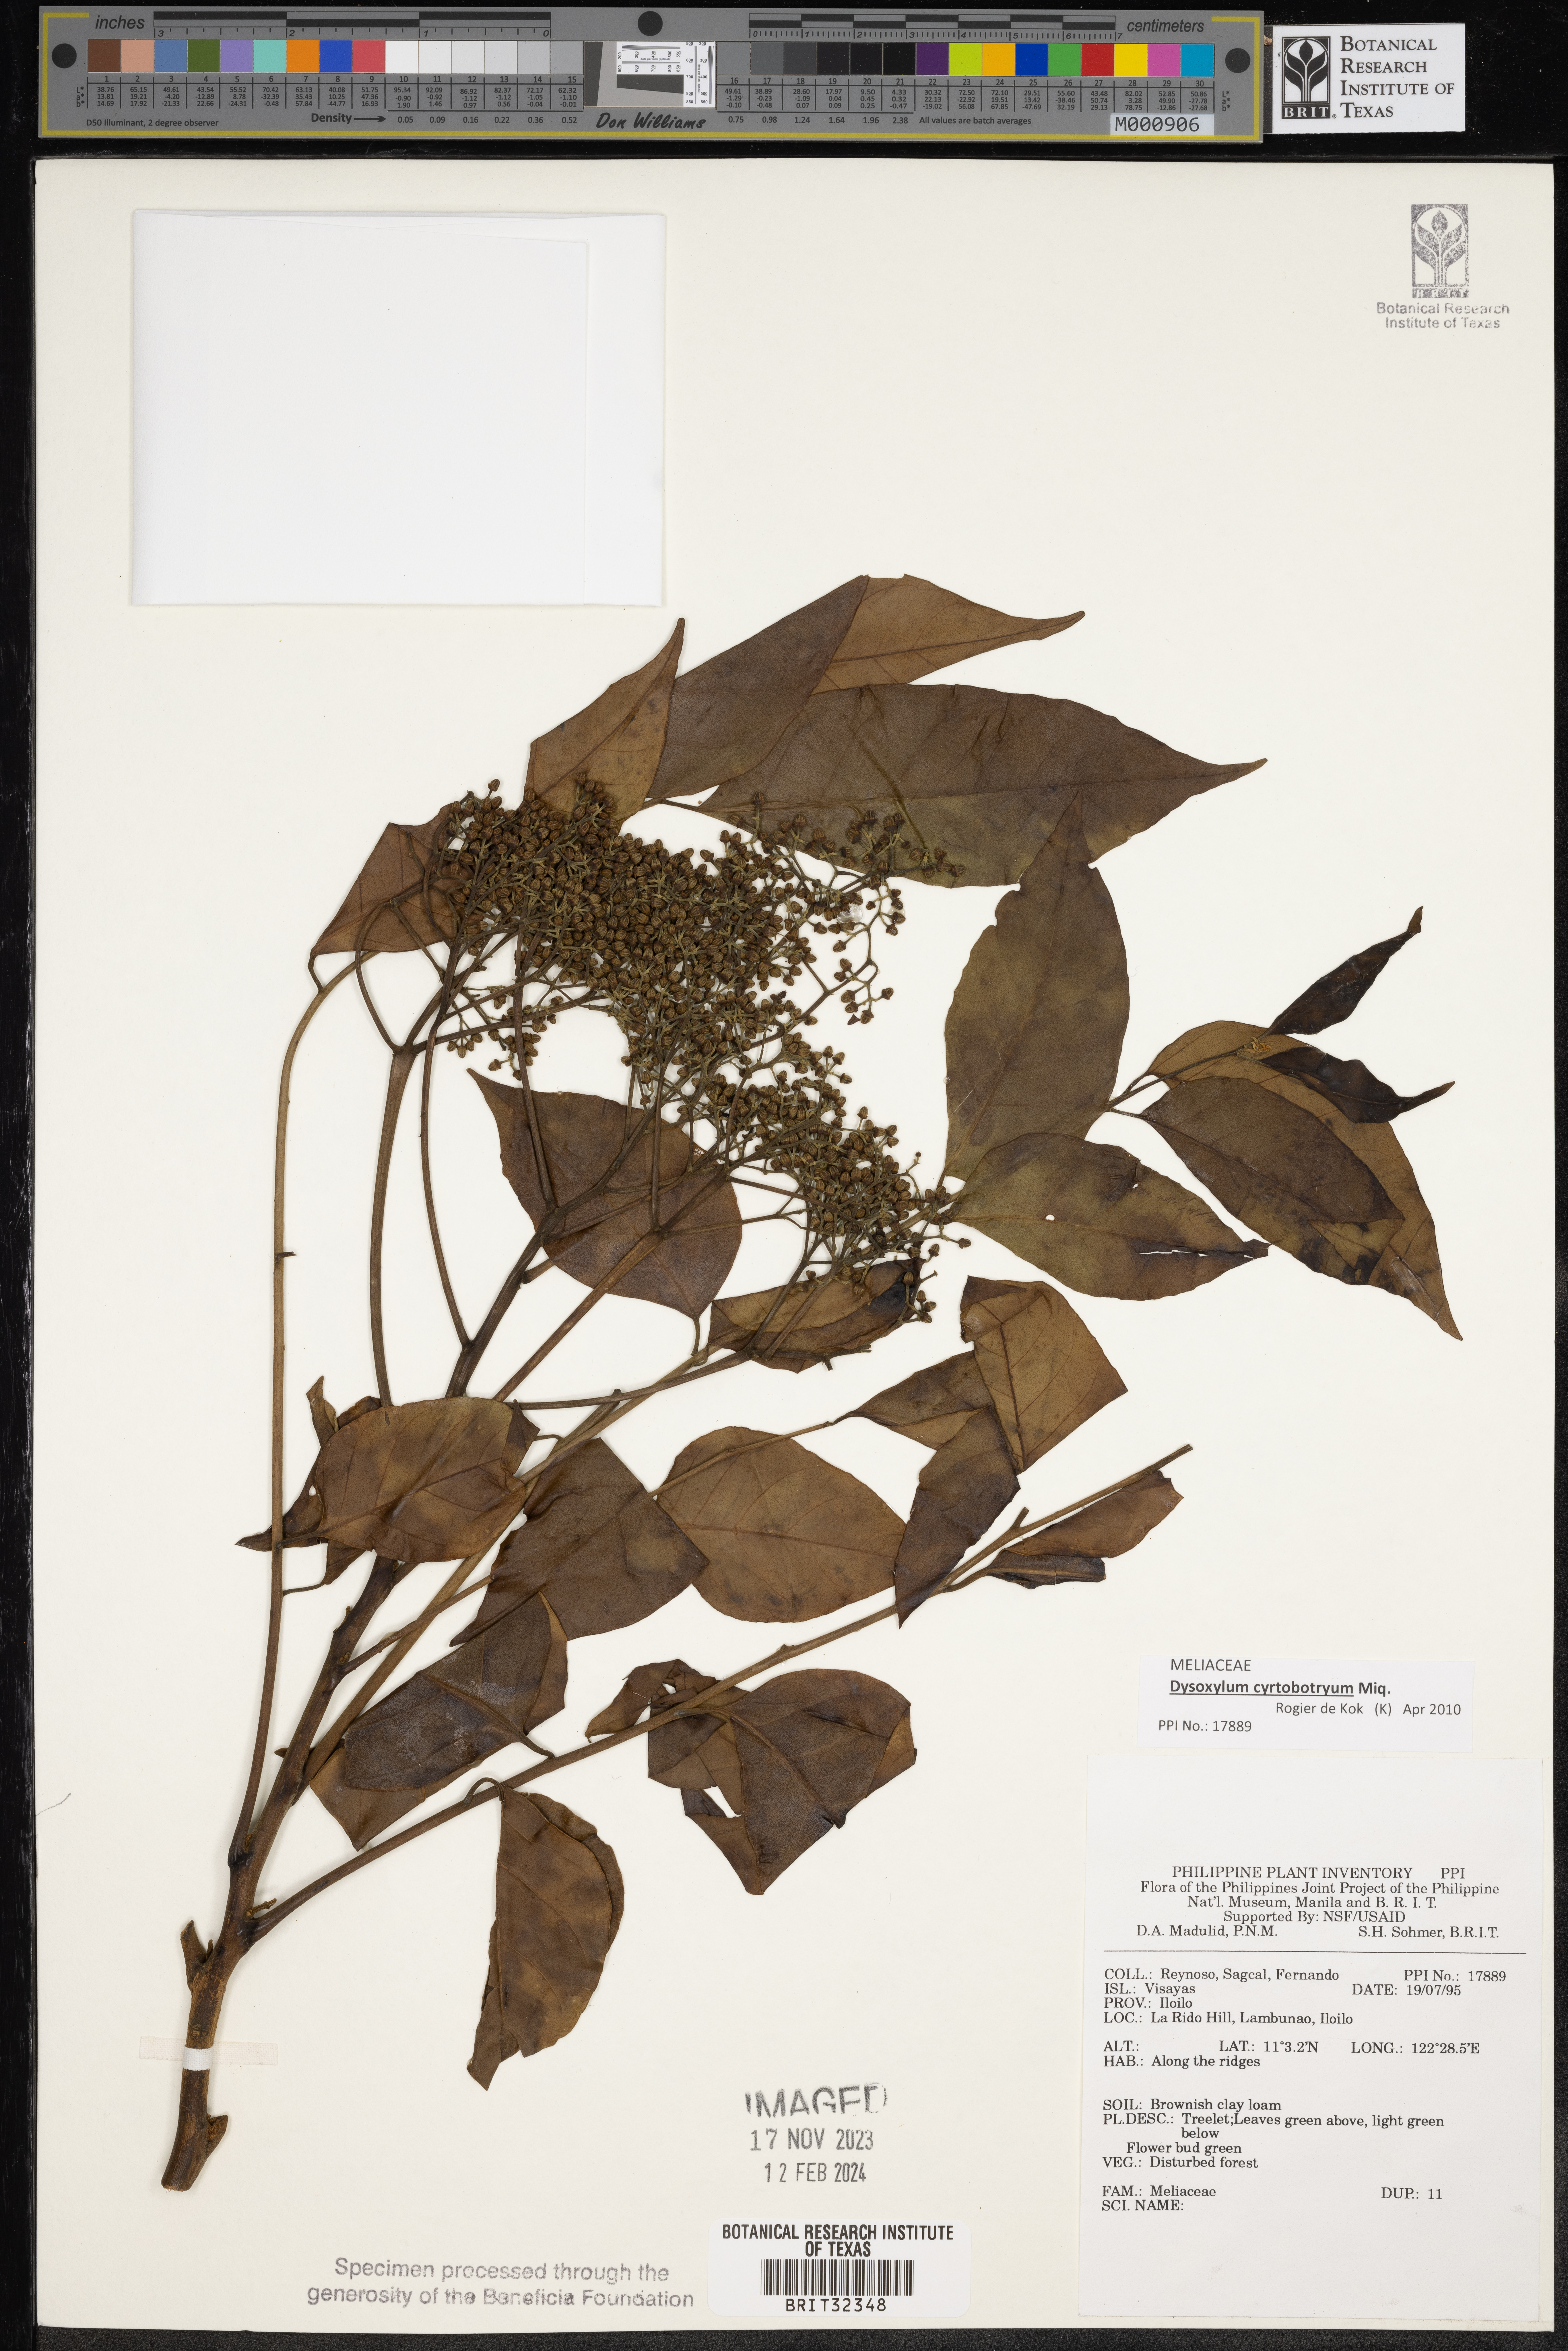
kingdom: Plantae
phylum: Tracheophyta
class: Magnoliopsida
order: Sapindales
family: Meliaceae
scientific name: Meliaceae
